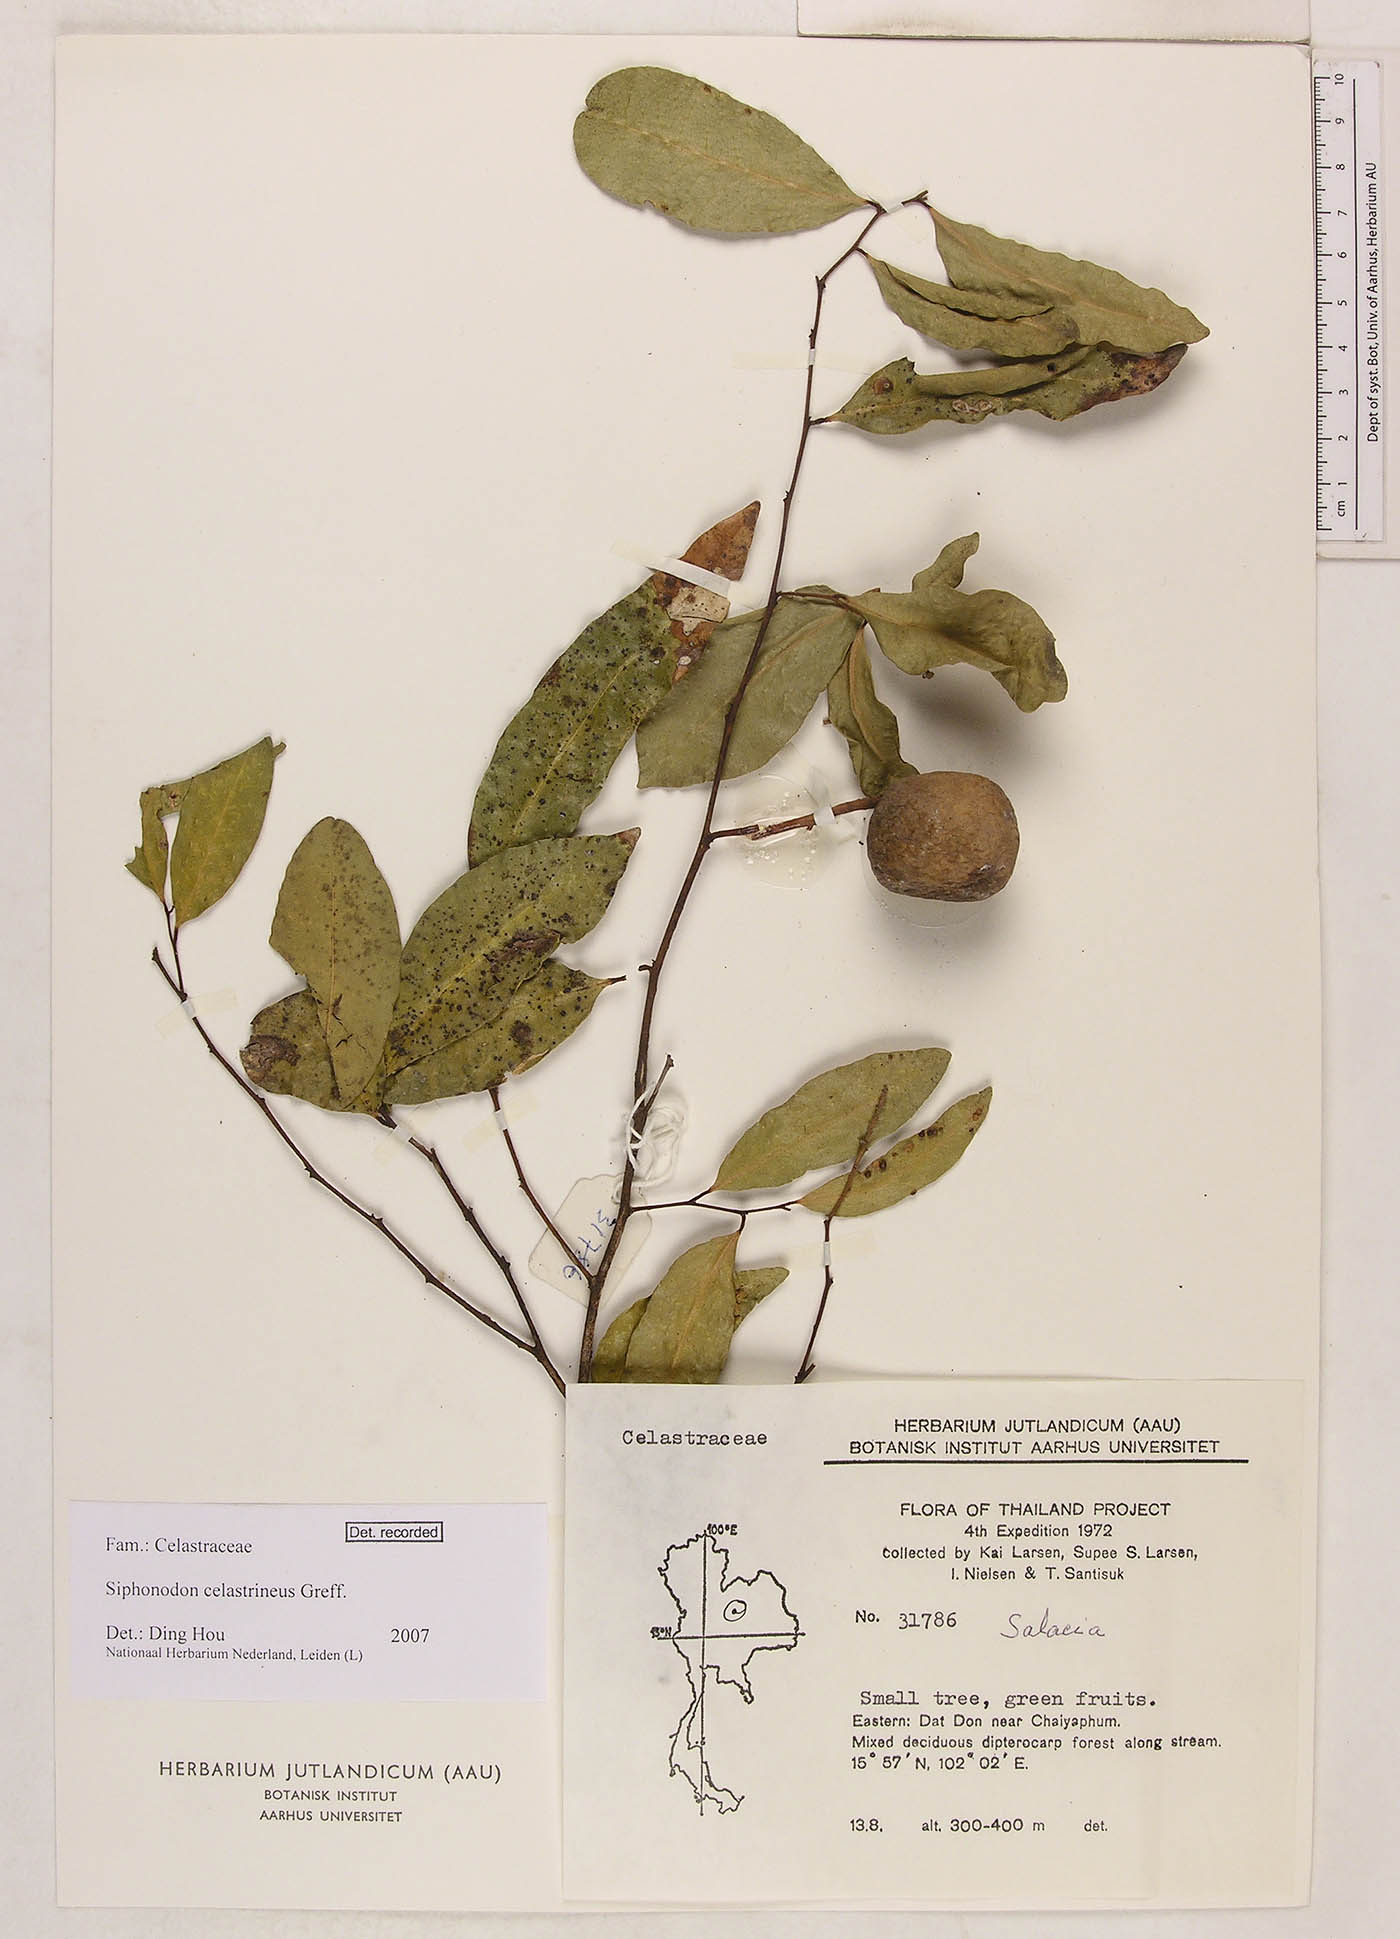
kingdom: Plantae
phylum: Tracheophyta
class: Magnoliopsida
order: Celastrales
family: Celastraceae
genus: Siphonodon
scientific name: Siphonodon celastrineus
